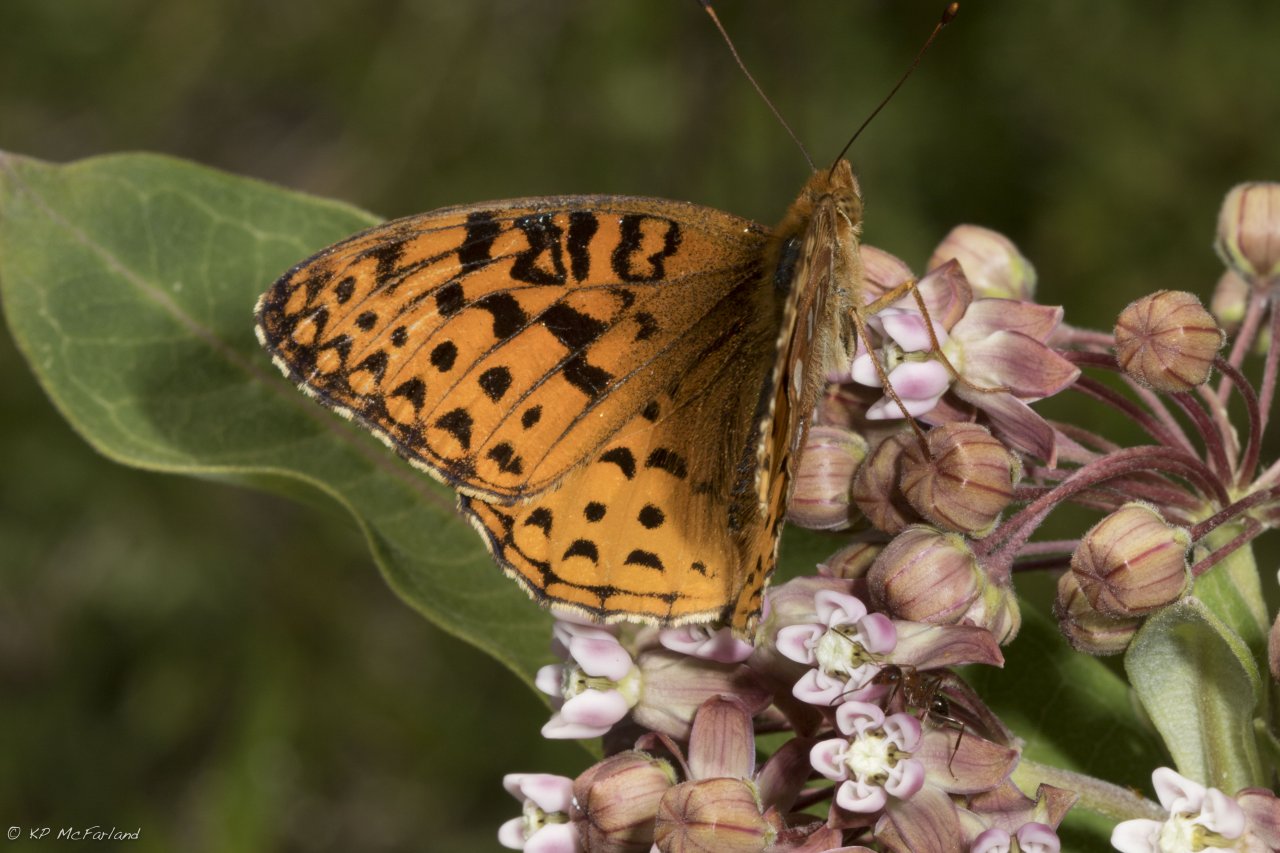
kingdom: Animalia
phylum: Arthropoda
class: Insecta
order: Lepidoptera
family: Nymphalidae
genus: Speyeria
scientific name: Speyeria cybele
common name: Great Spangled Fritillary
